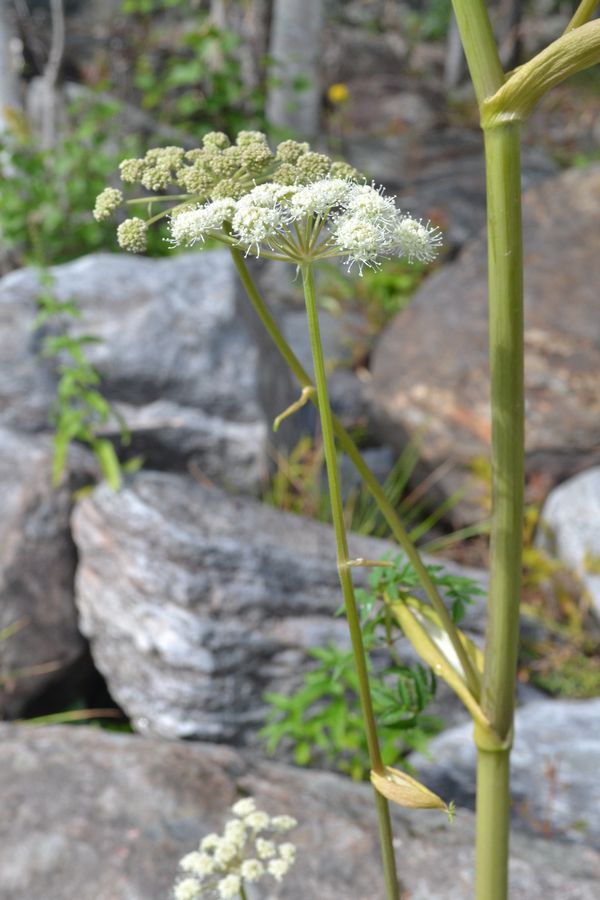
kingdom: Plantae
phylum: Tracheophyta
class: Magnoliopsida
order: Apiales
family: Apiaceae
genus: Angelica
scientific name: Angelica sylvestris
